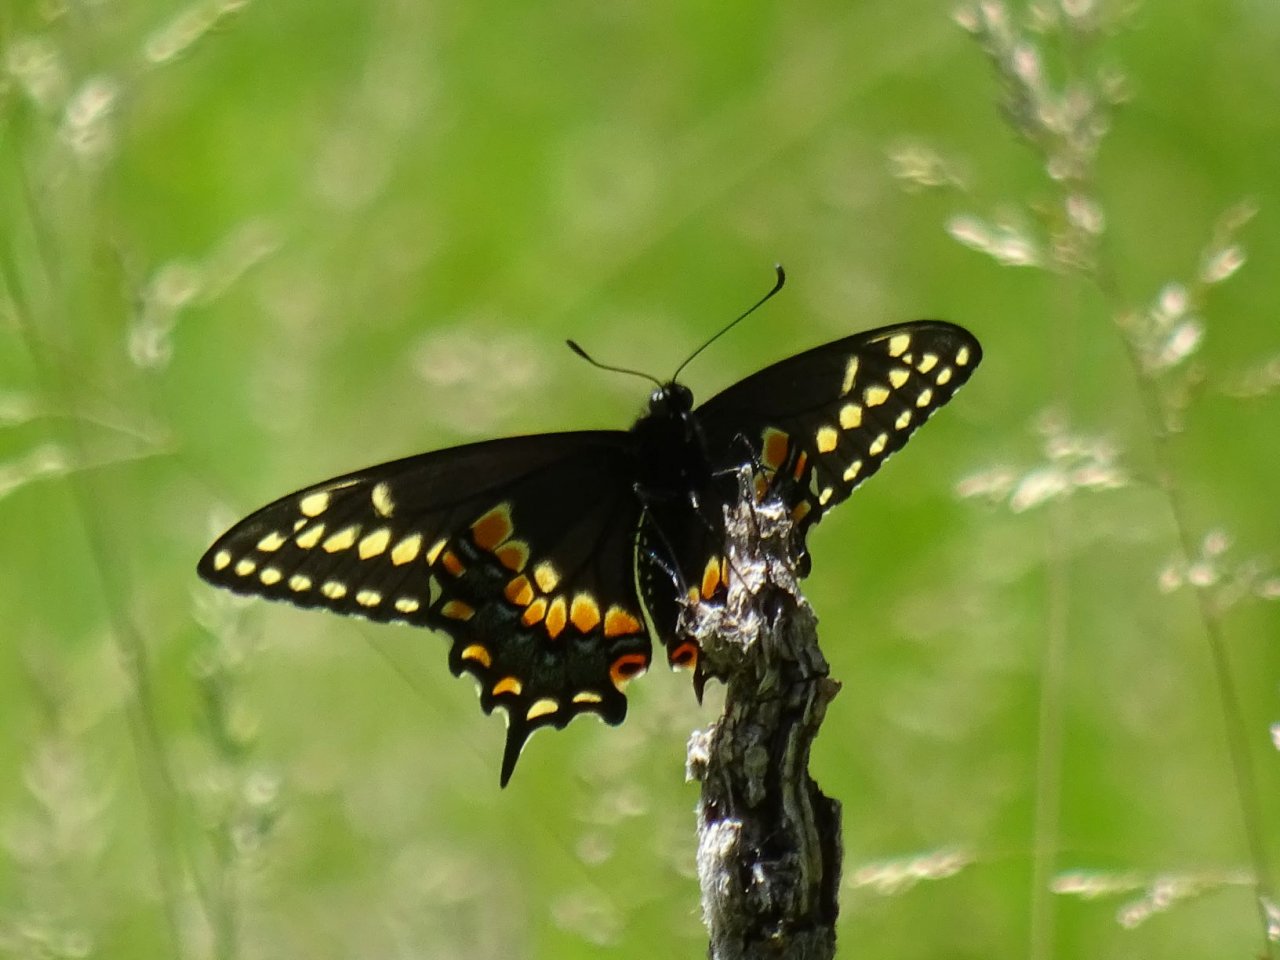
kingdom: Animalia
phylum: Arthropoda
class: Insecta
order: Lepidoptera
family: Papilionidae
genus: Papilio
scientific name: Papilio polyxenes
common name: Black Swallowtail
